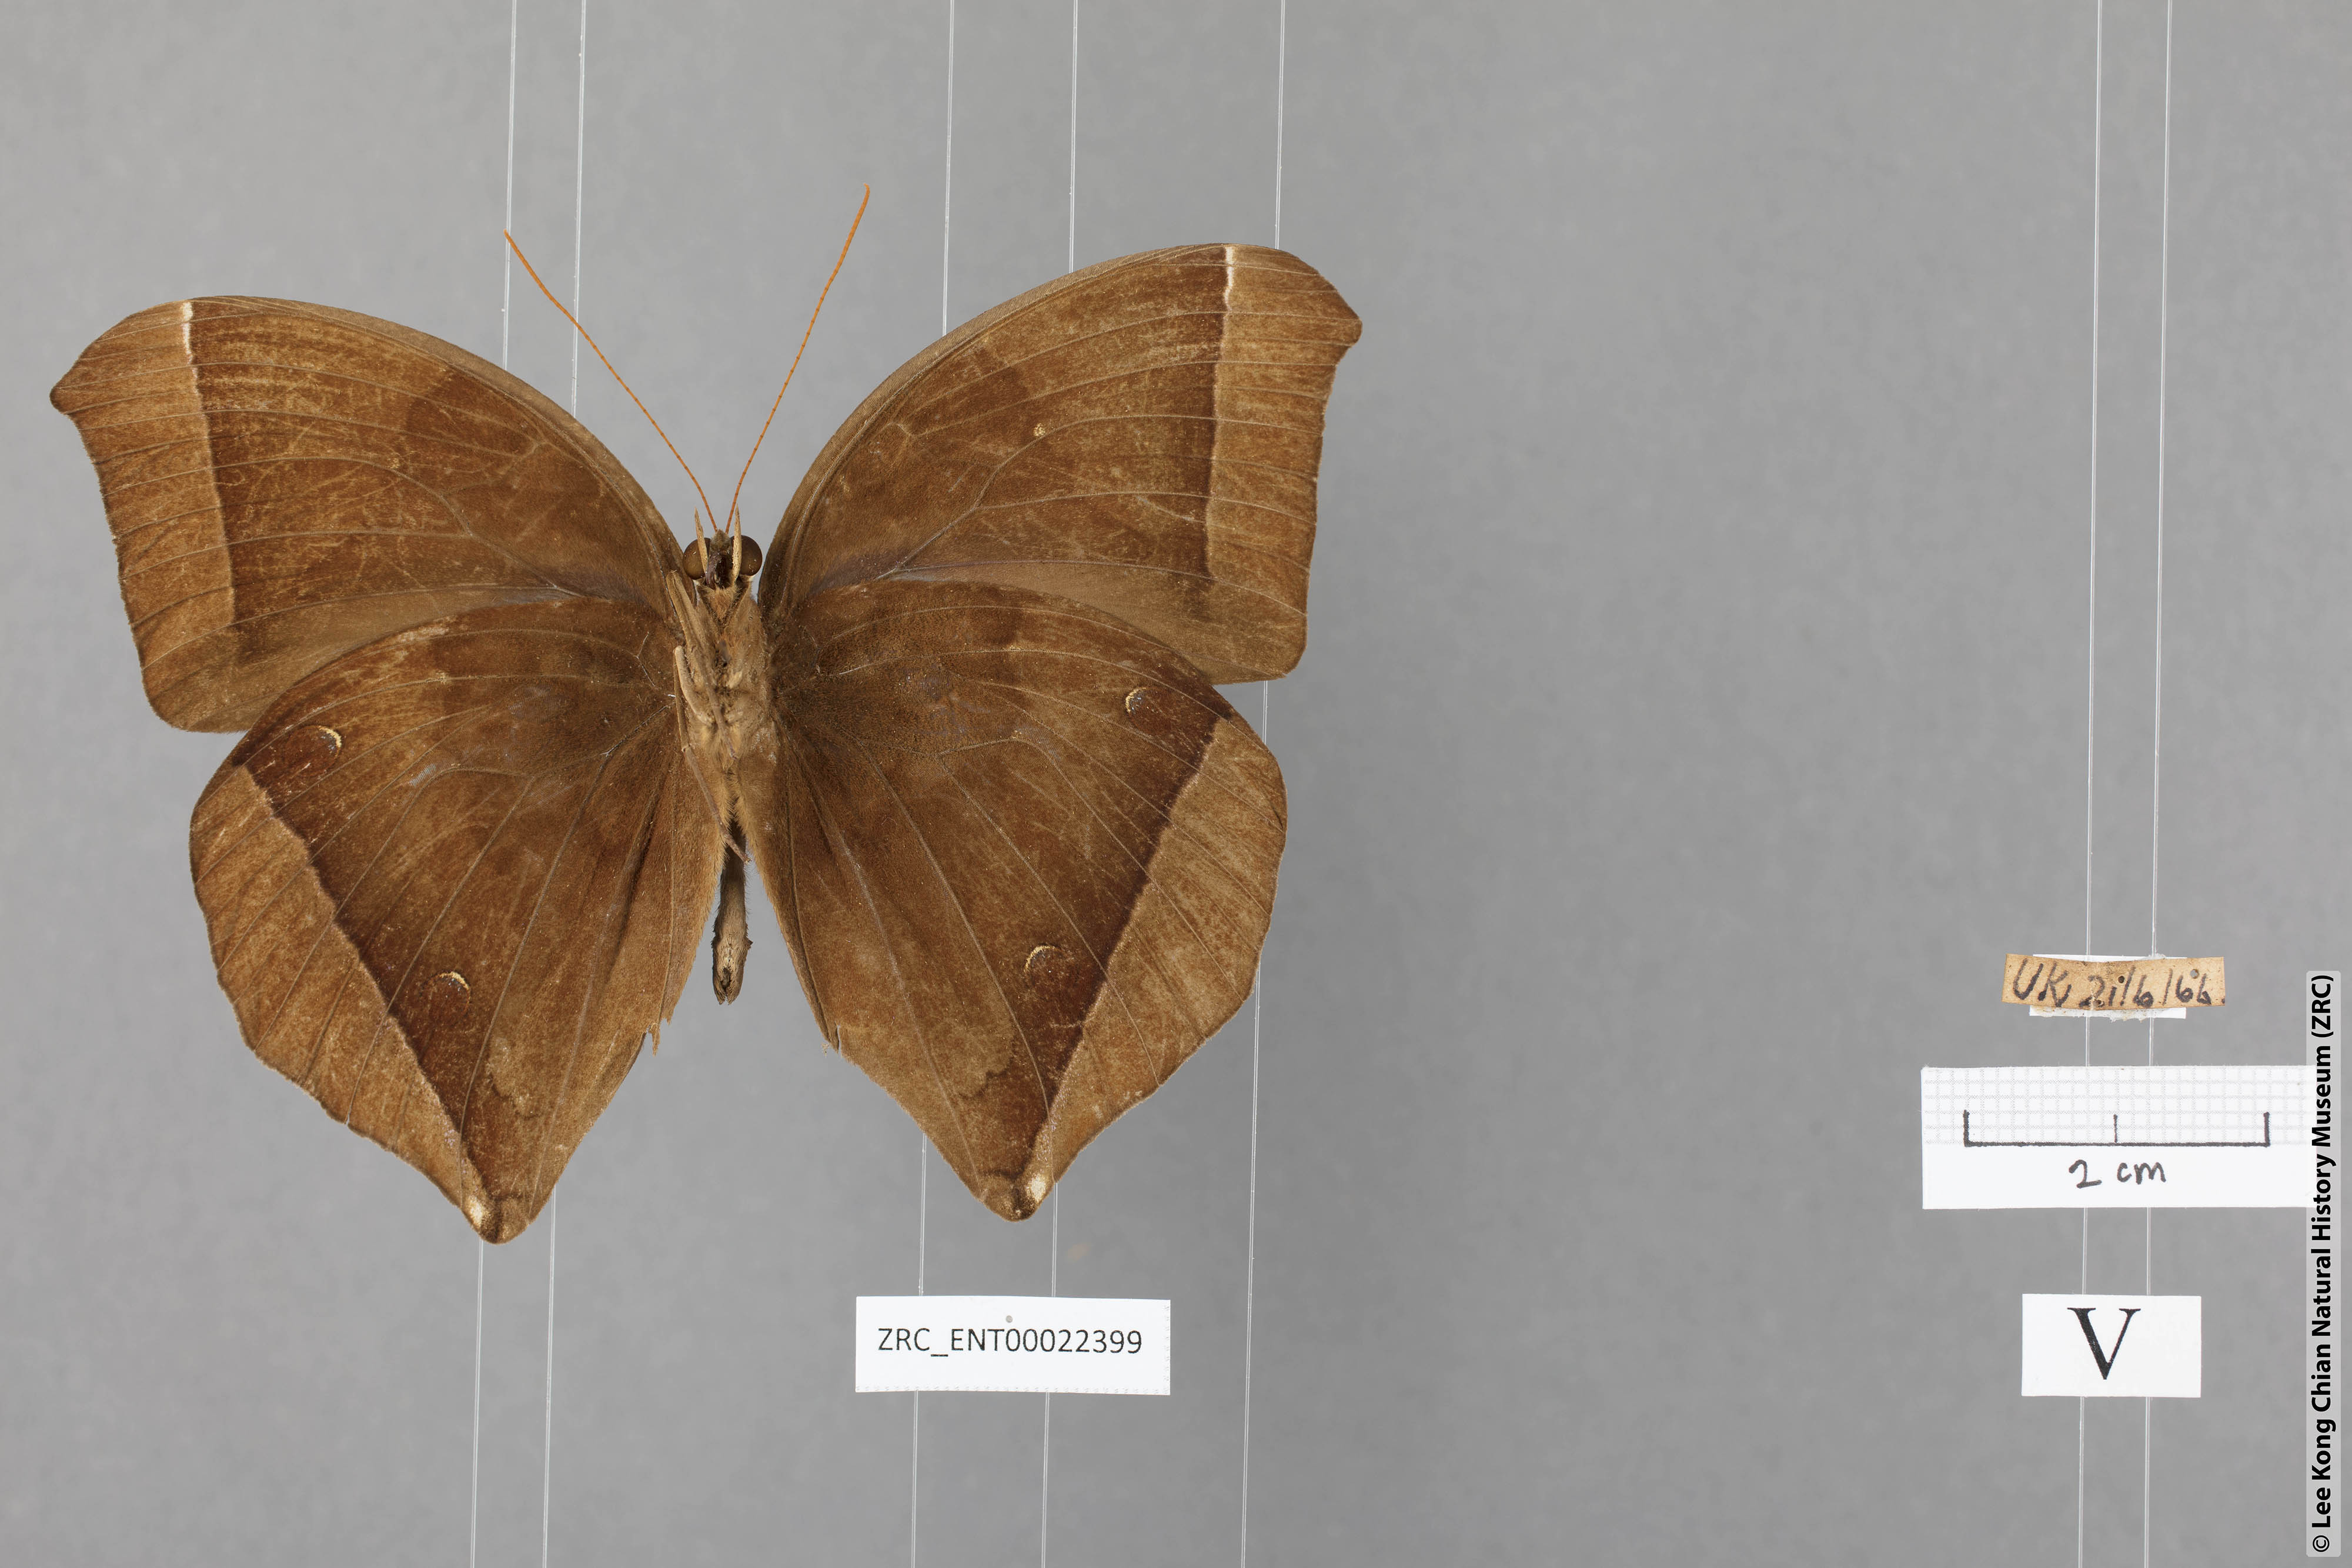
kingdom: Animalia
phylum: Arthropoda
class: Insecta
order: Lepidoptera
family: Nymphalidae
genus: Thaumantis
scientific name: Thaumantis noureddin
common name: Dark jungle glory
